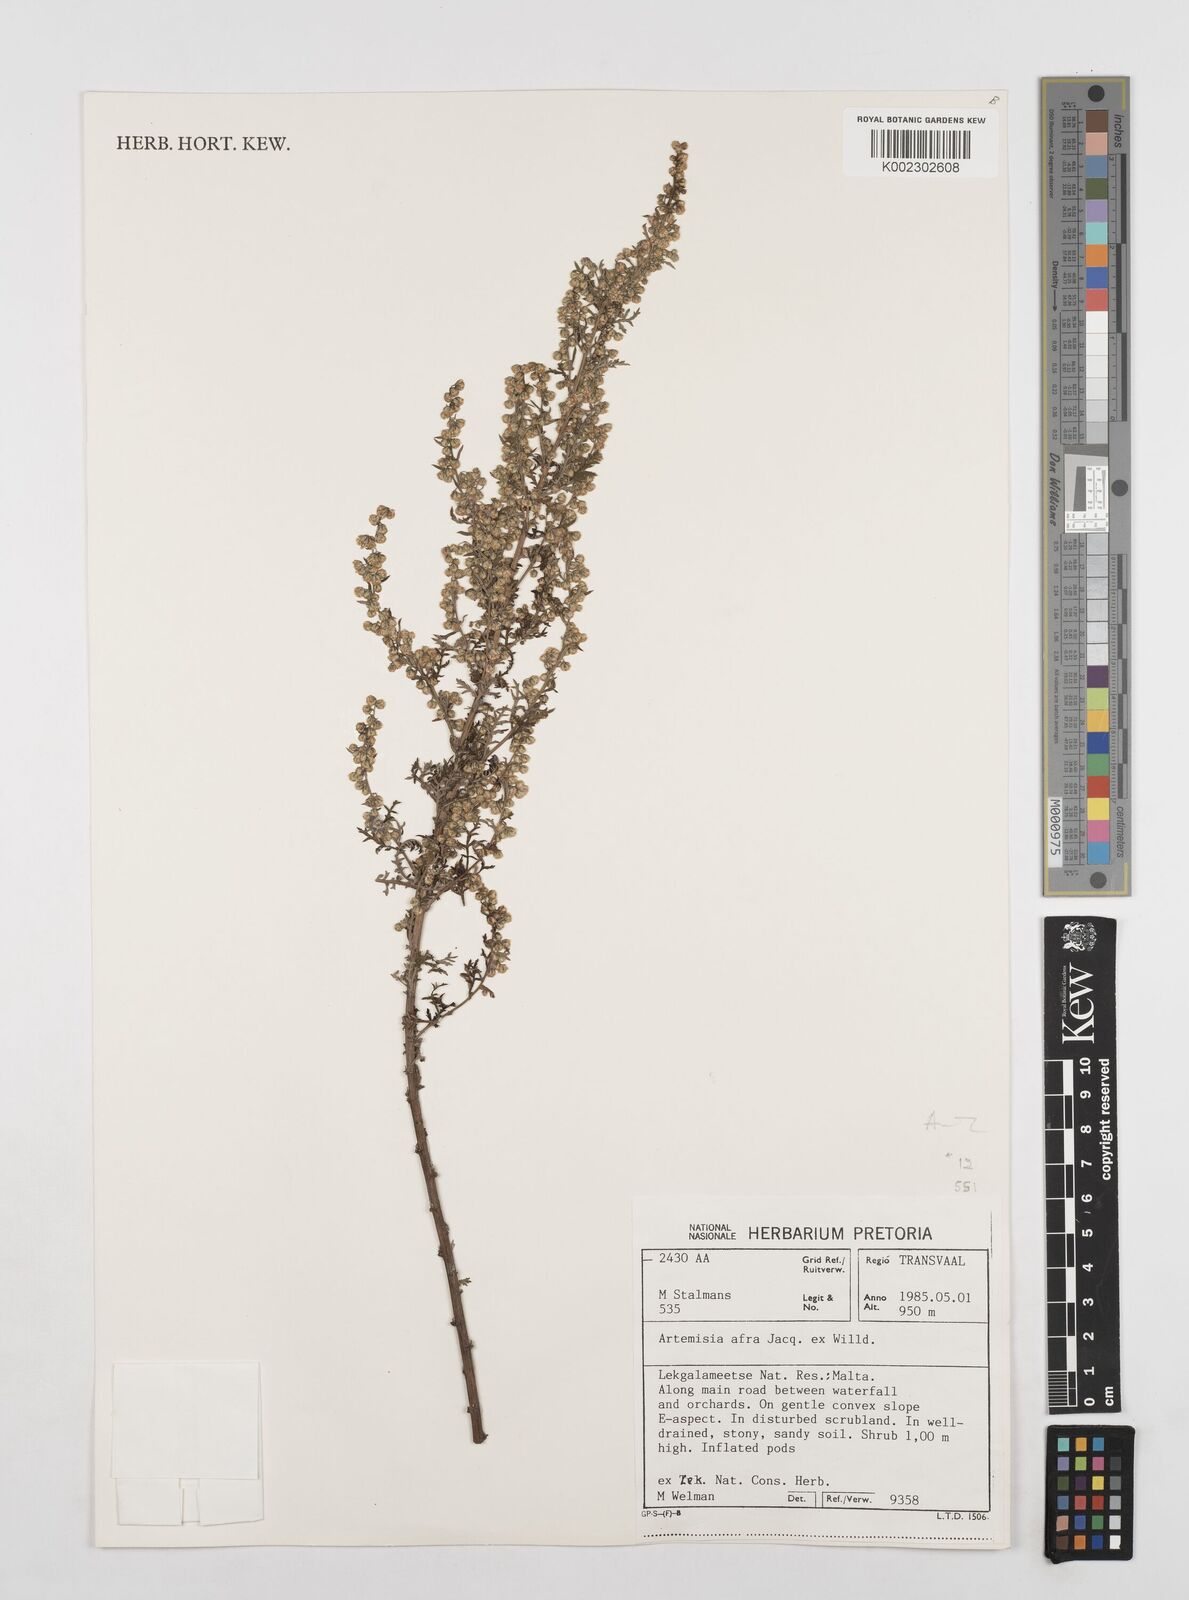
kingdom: Plantae
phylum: Tracheophyta
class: Magnoliopsida
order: Asterales
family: Asteraceae
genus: Artemisia
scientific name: Artemisia afra
